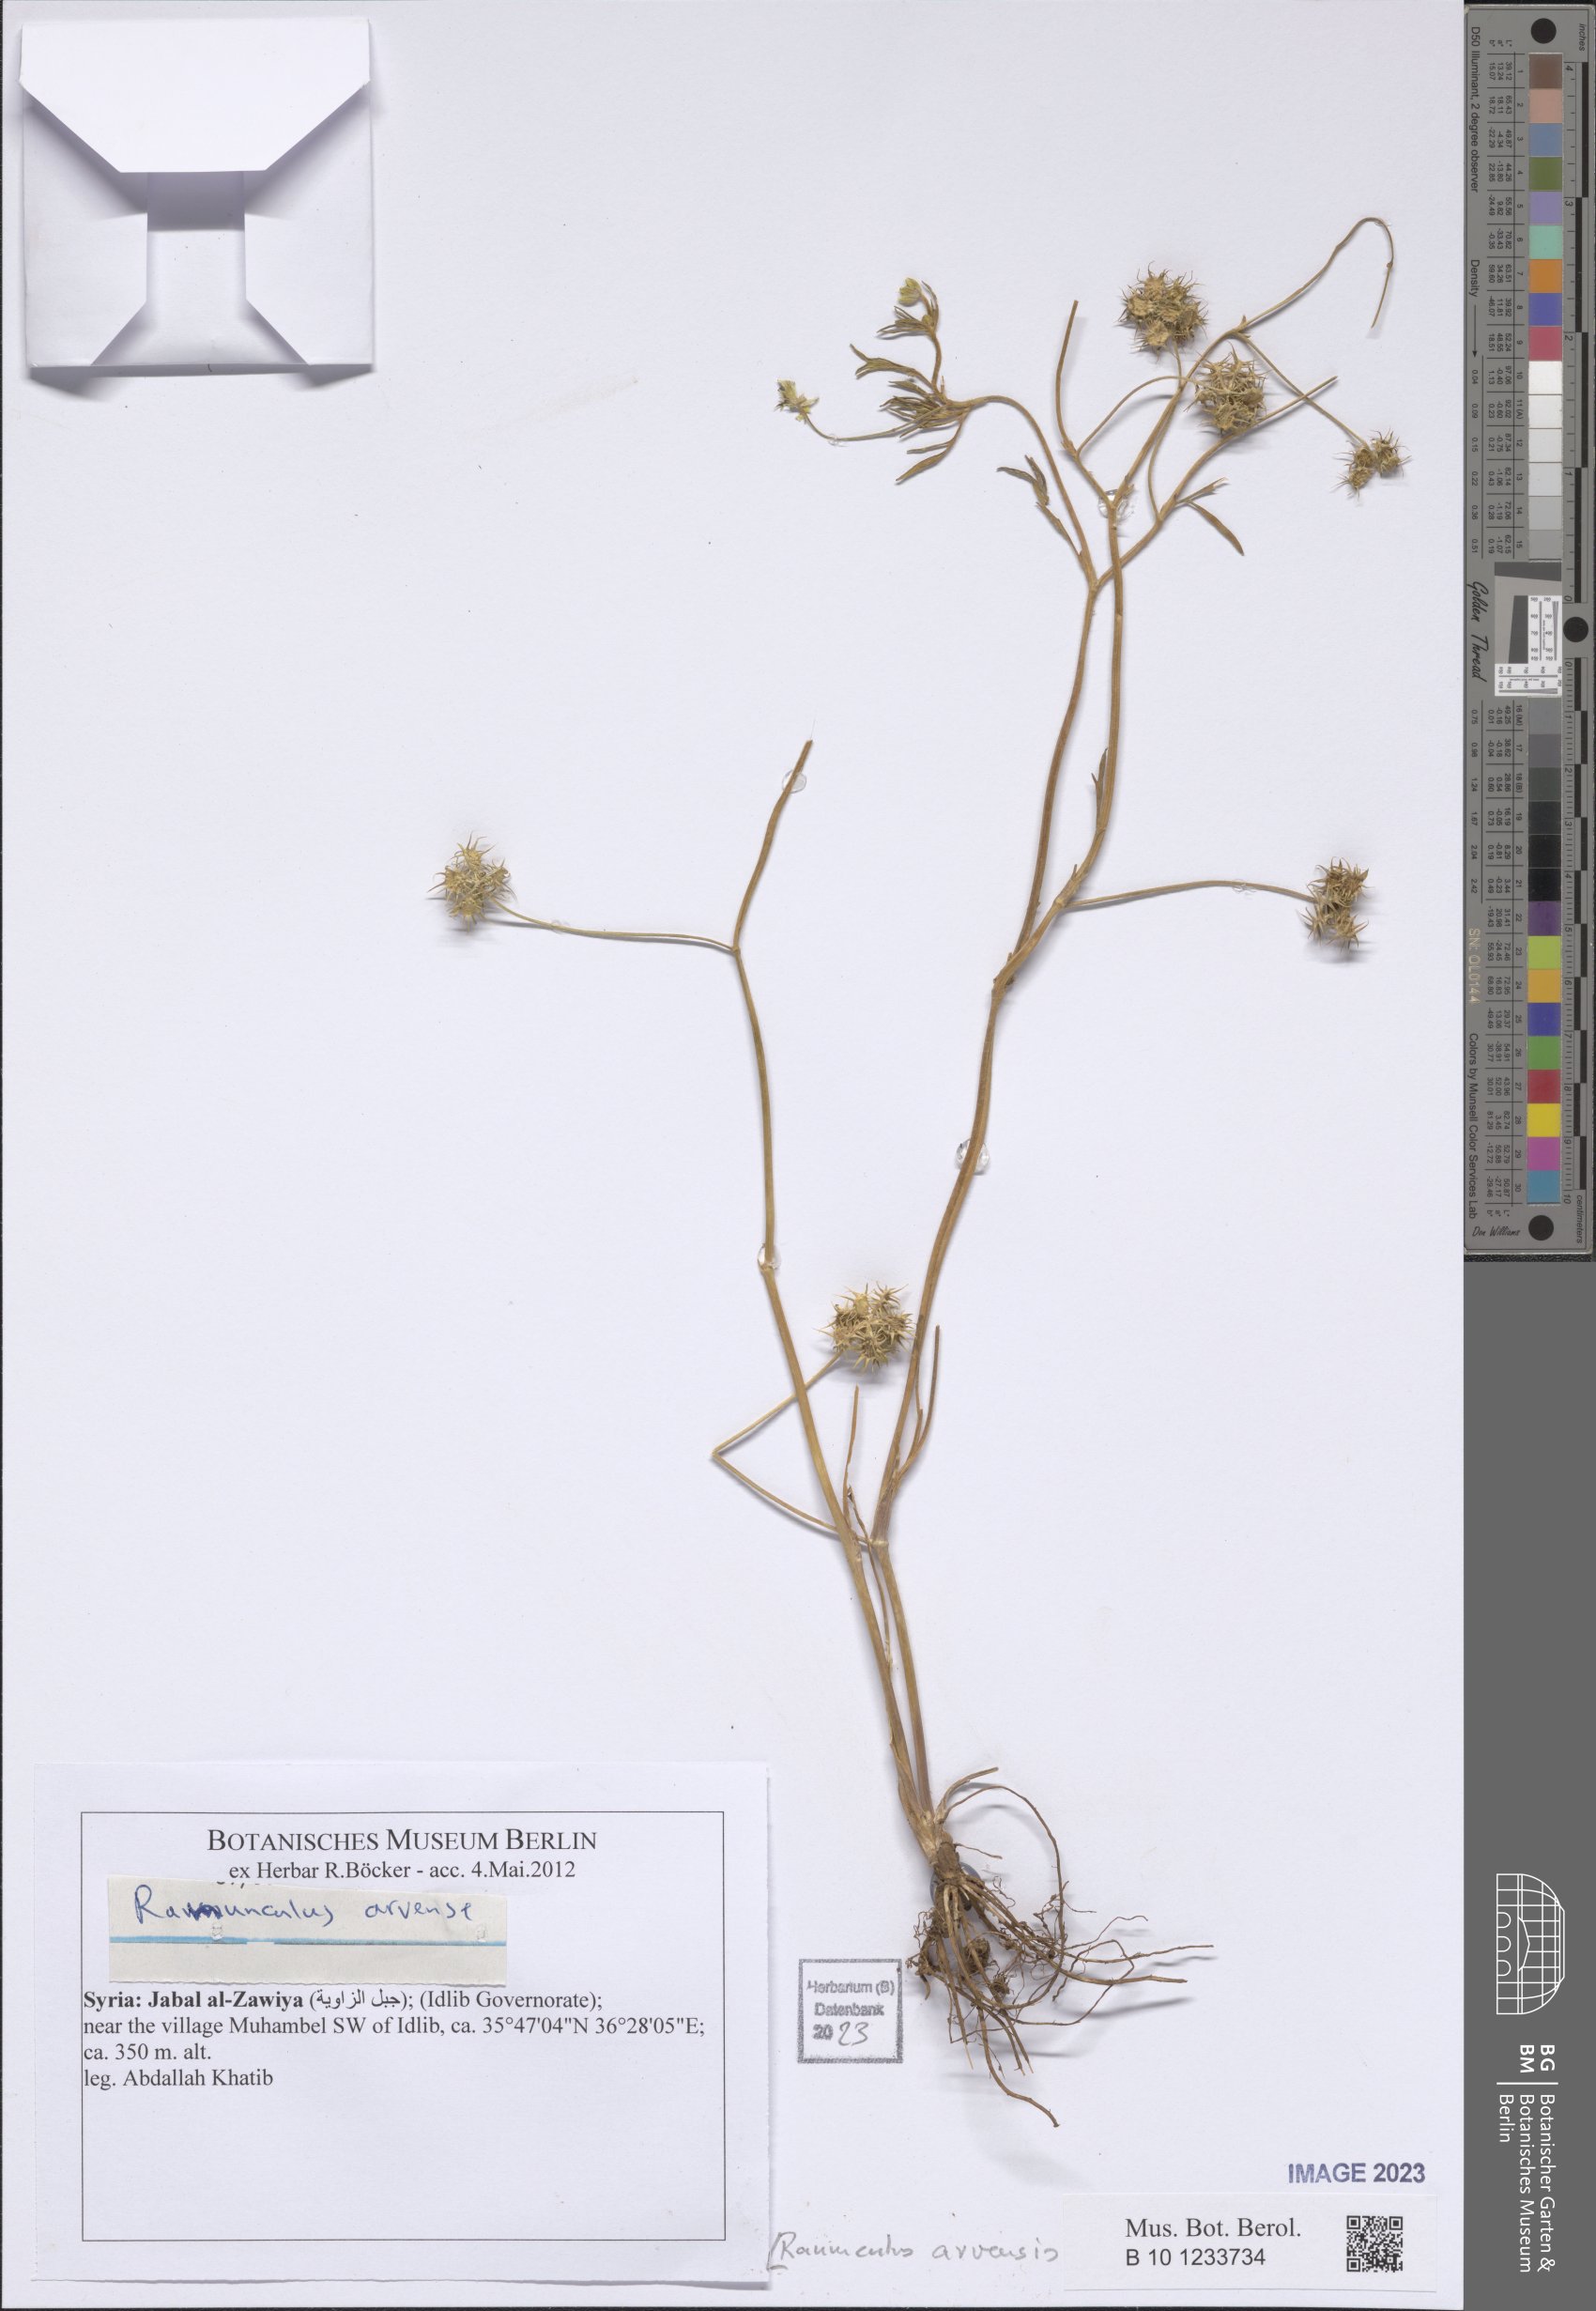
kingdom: Plantae
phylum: Tracheophyta
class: Magnoliopsida
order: Ranunculales
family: Ranunculaceae
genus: Ranunculus
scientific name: Ranunculus arvensis
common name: Corn buttercup
